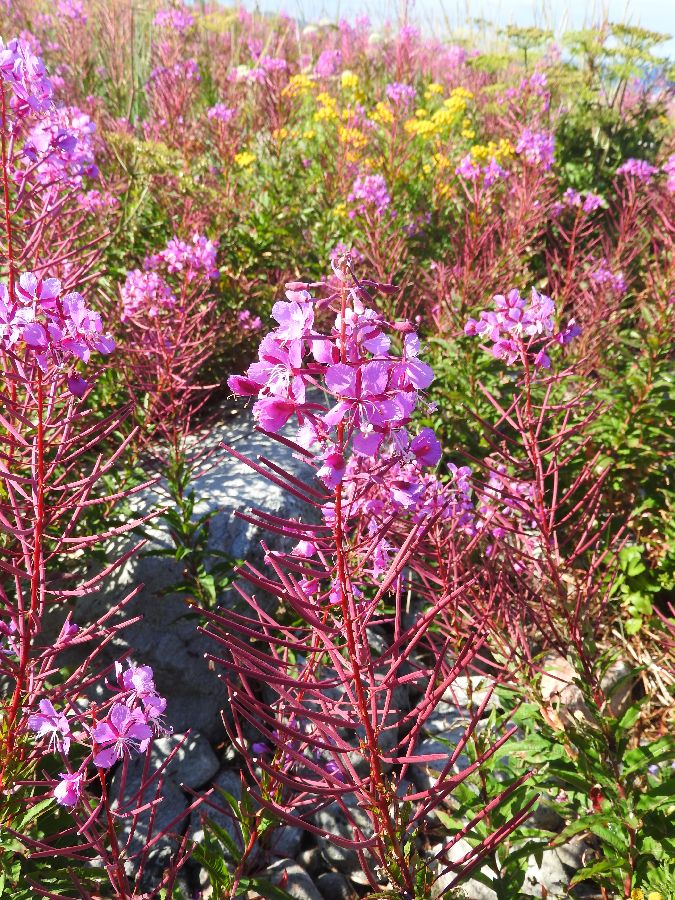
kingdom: Plantae
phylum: Tracheophyta
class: Magnoliopsida
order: Myrtales
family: Onagraceae
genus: Chamaenerion
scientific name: Chamaenerion angustifolium
